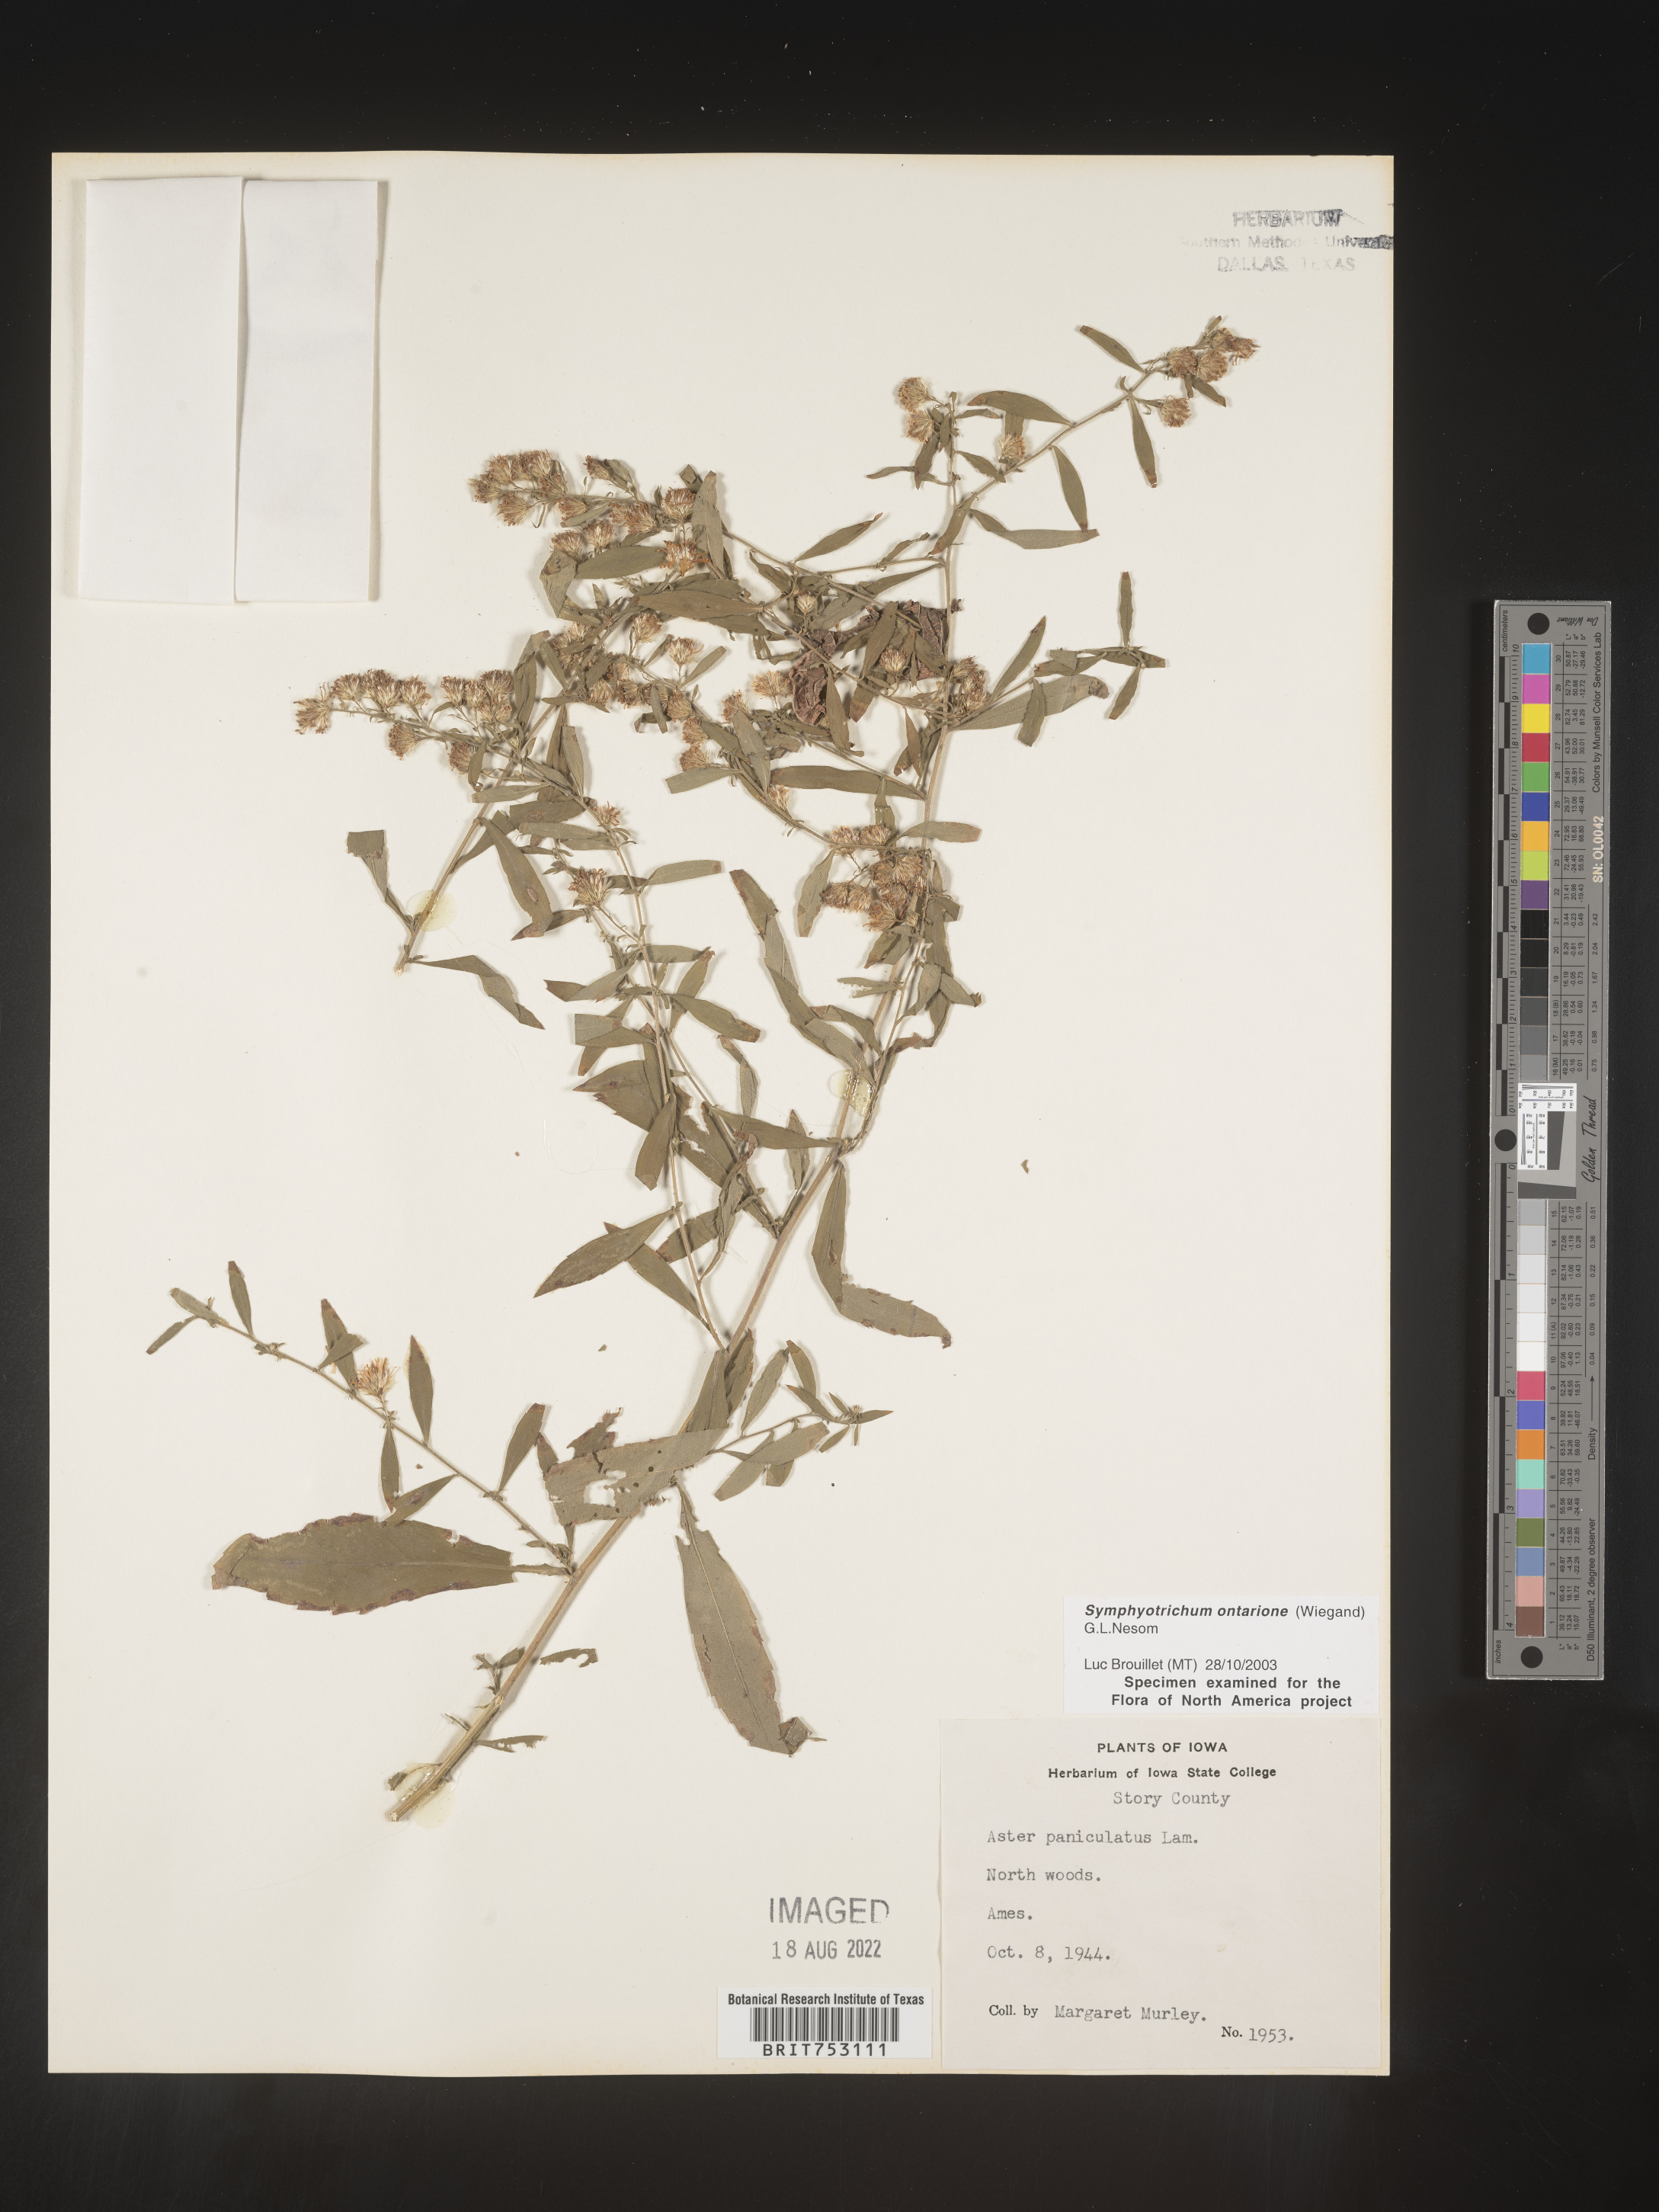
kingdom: Plantae
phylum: Tracheophyta
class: Magnoliopsida
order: Asterales
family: Asteraceae
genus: Symphyotrichum
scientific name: Symphyotrichum ontarionis
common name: Bottomland aster
